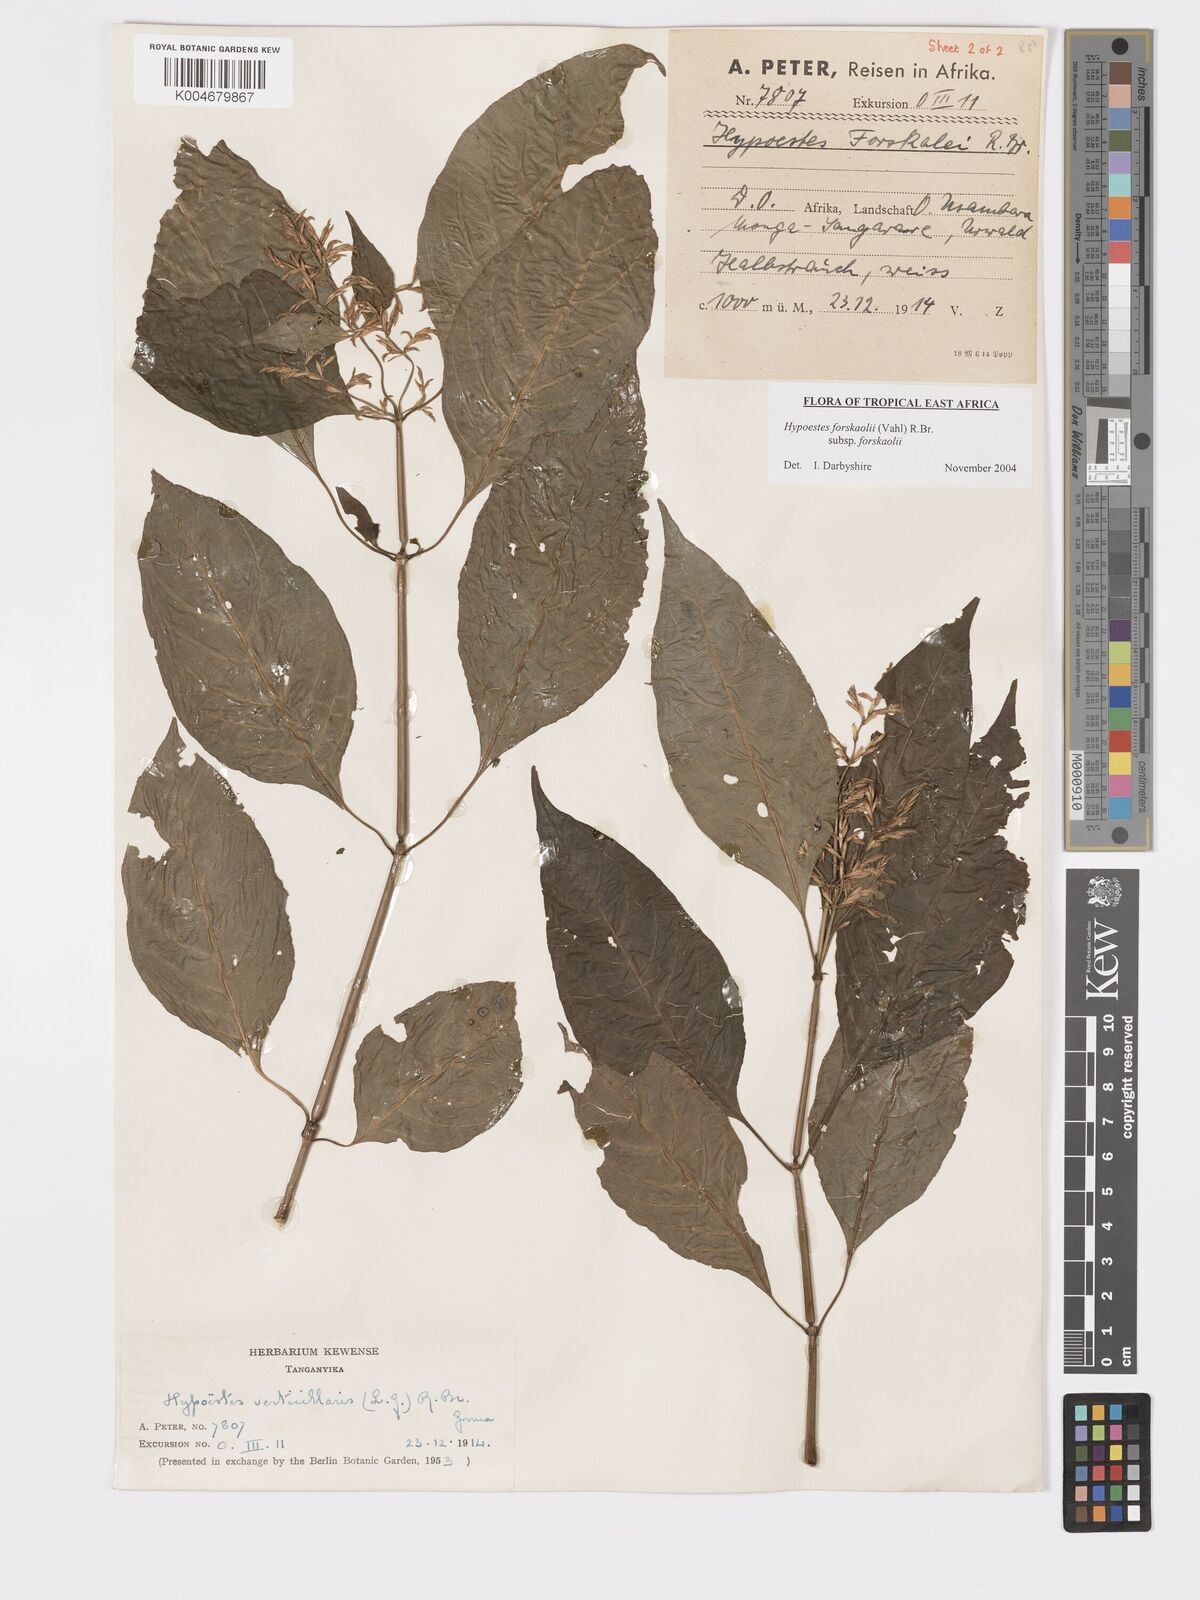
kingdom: Plantae
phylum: Tracheophyta
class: Magnoliopsida
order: Lamiales
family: Acanthaceae
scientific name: Acanthaceae
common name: Acanthaceae
